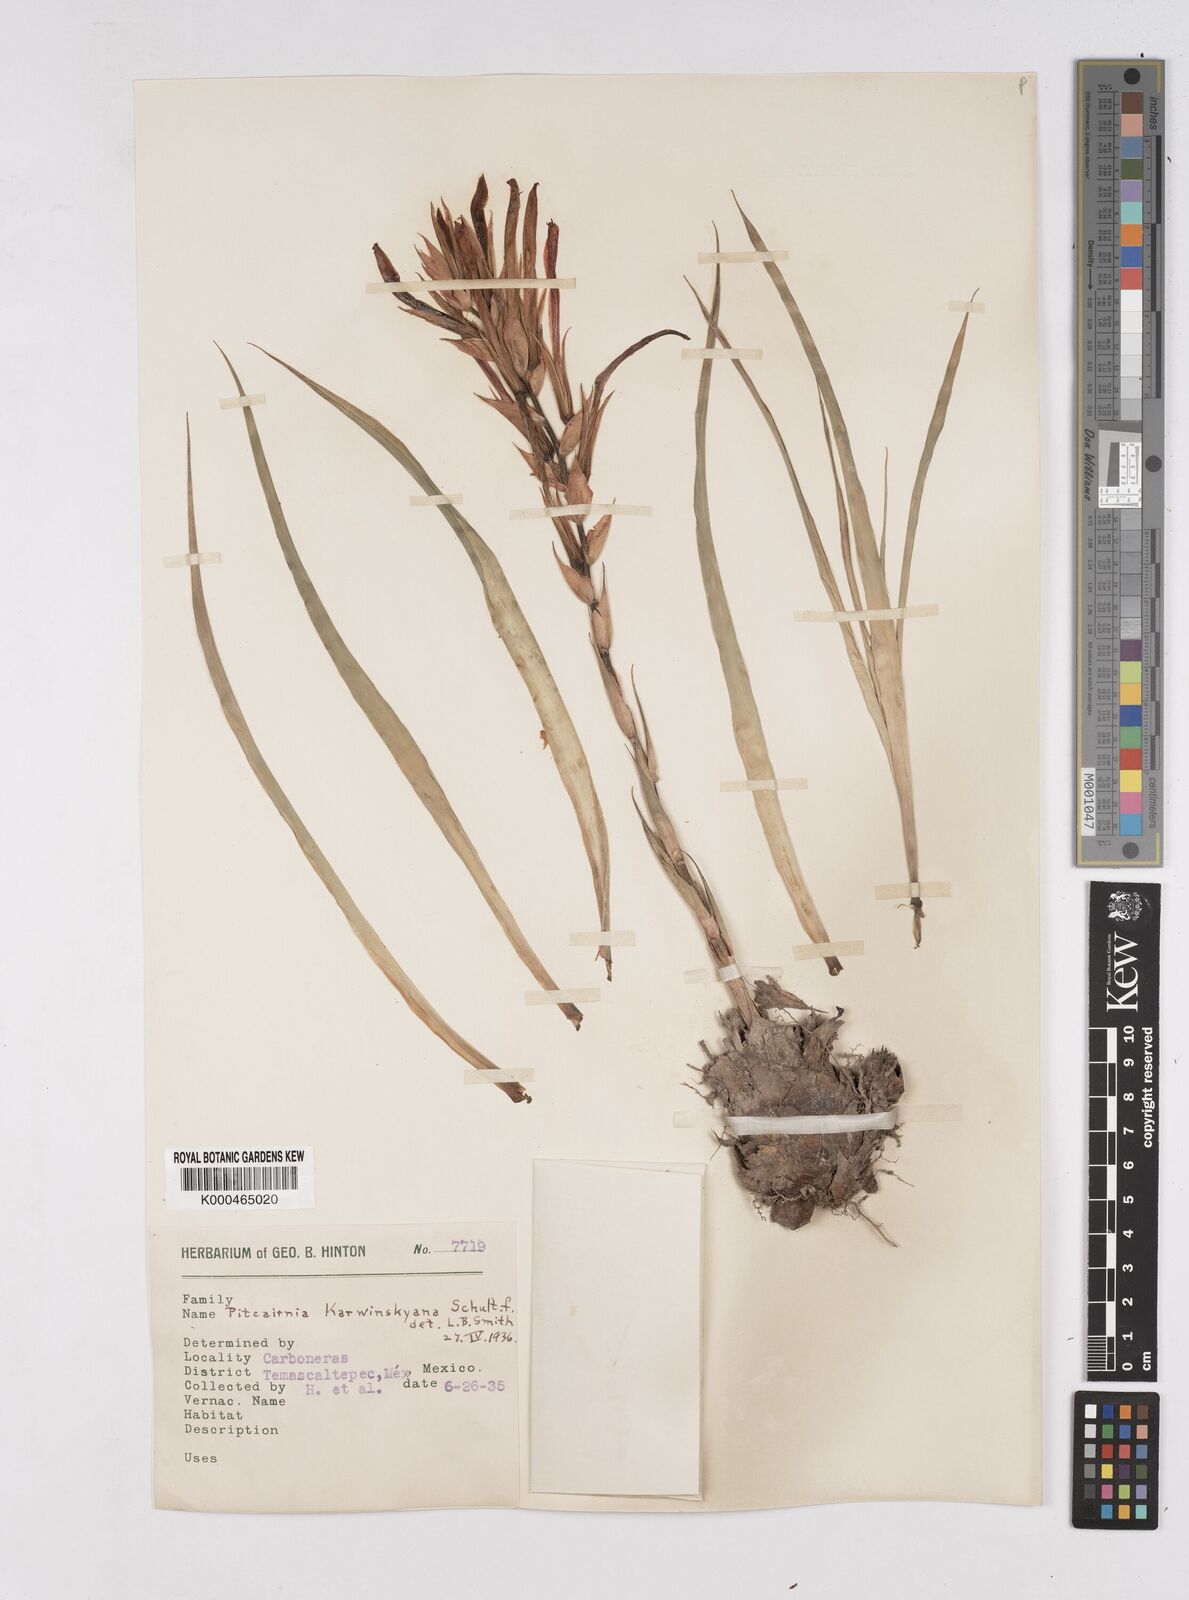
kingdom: Plantae
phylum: Tracheophyta
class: Liliopsida
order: Poales
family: Bromeliaceae
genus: Pitcairnia
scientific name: Pitcairnia karwinskyana
